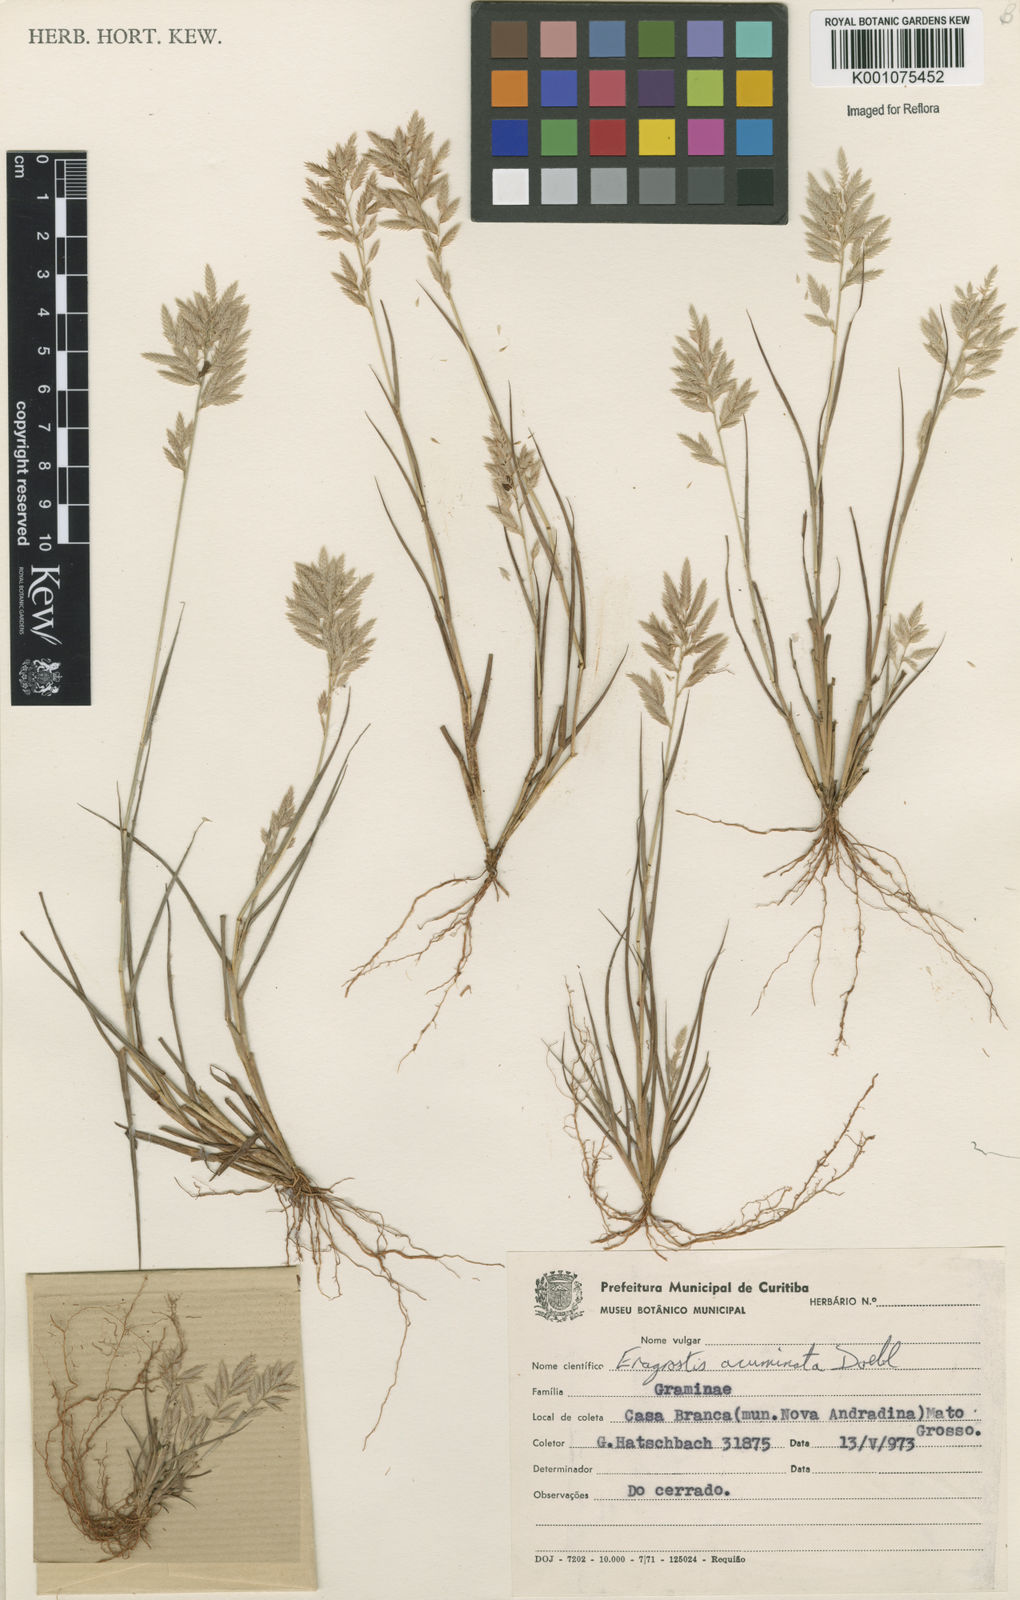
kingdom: Plantae
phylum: Tracheophyta
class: Liliopsida
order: Poales
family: Poaceae
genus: Eragrostis
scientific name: Eragrostis maypurensis
